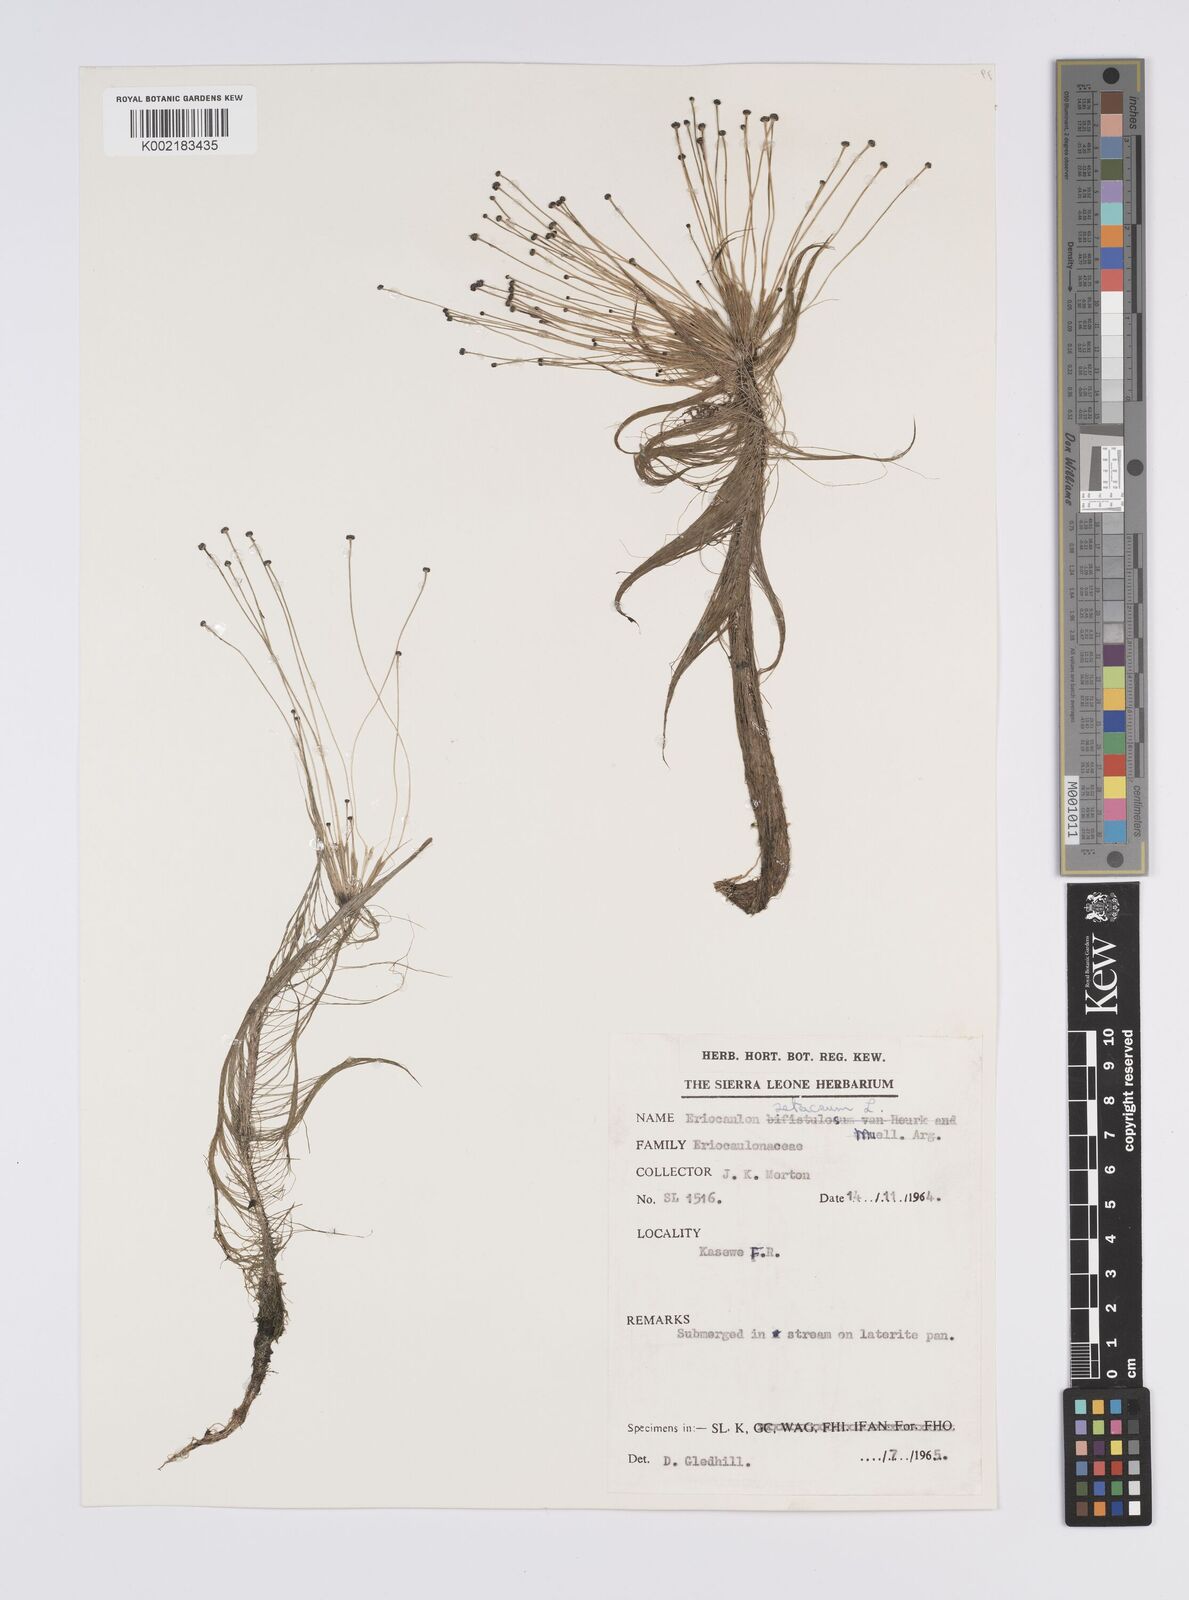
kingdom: Plantae
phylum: Tracheophyta
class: Liliopsida
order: Poales
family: Eriocaulaceae
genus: Eriocaulon
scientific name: Eriocaulon setaceum
